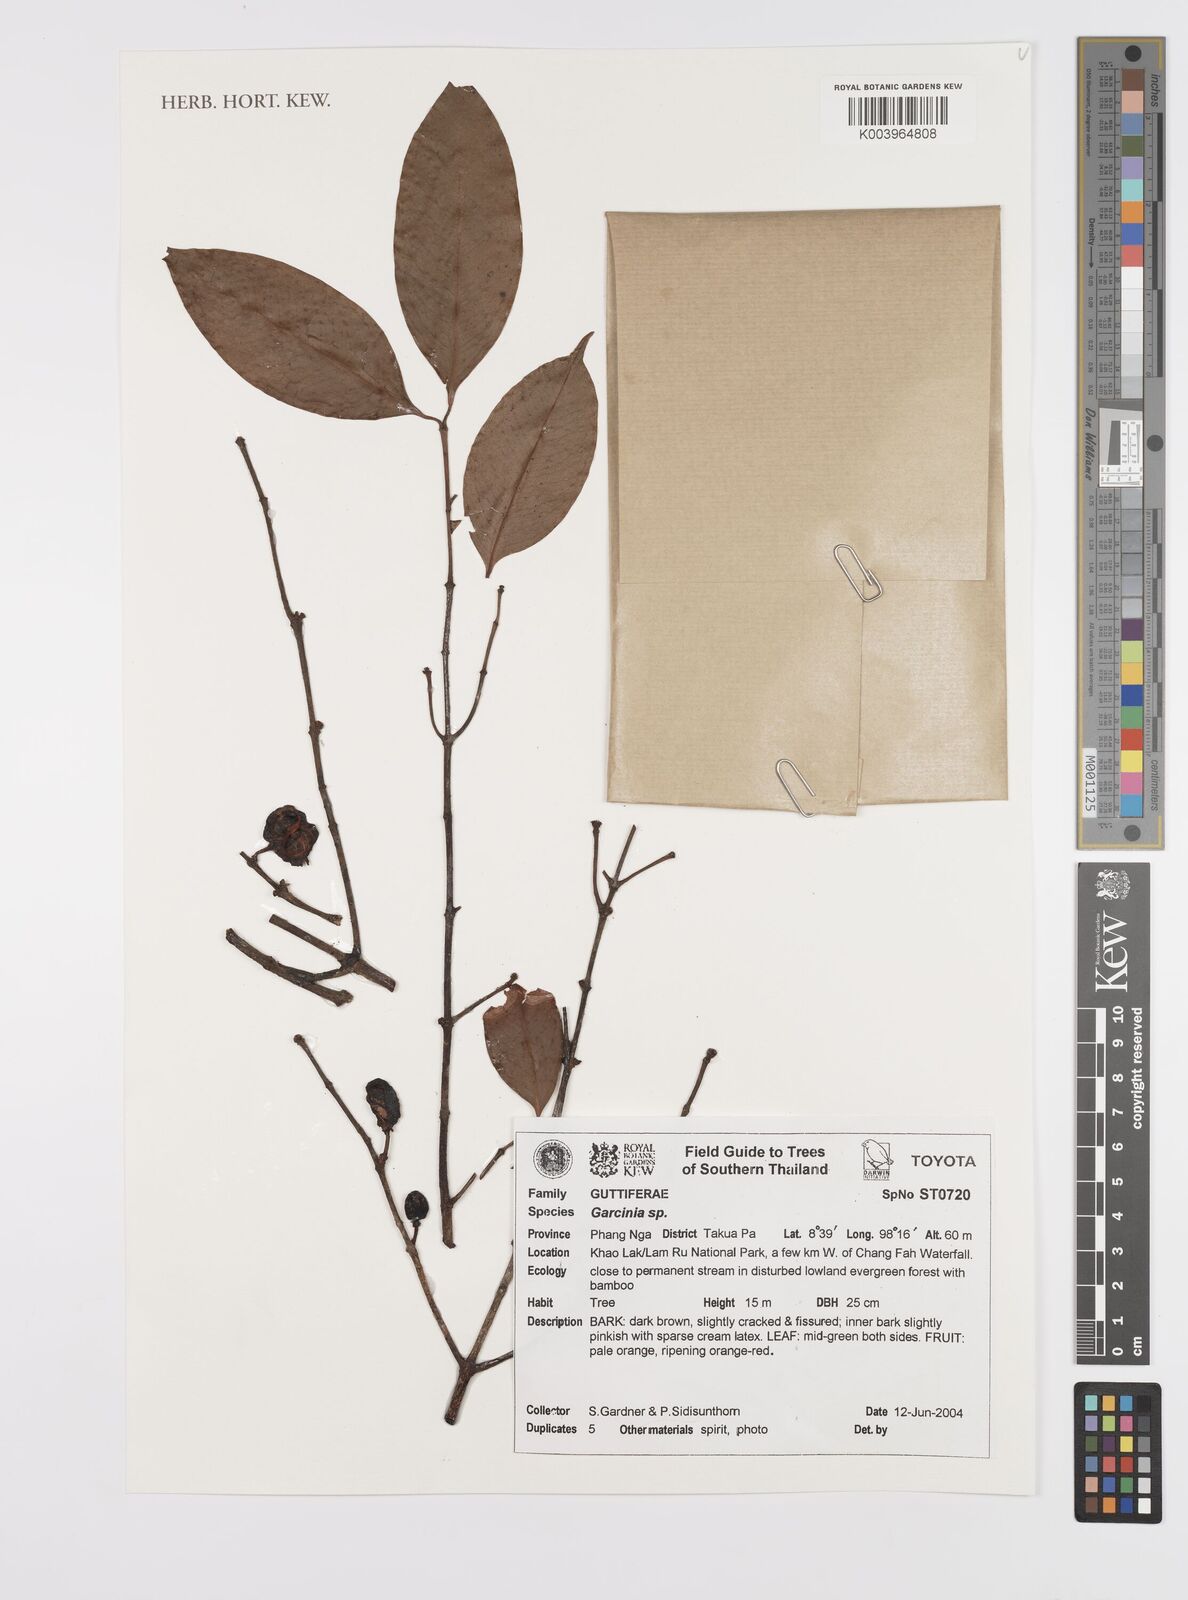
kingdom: Plantae
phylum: Tracheophyta
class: Magnoliopsida
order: Malpighiales
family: Clusiaceae
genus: Garcinia
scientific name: Garcinia
